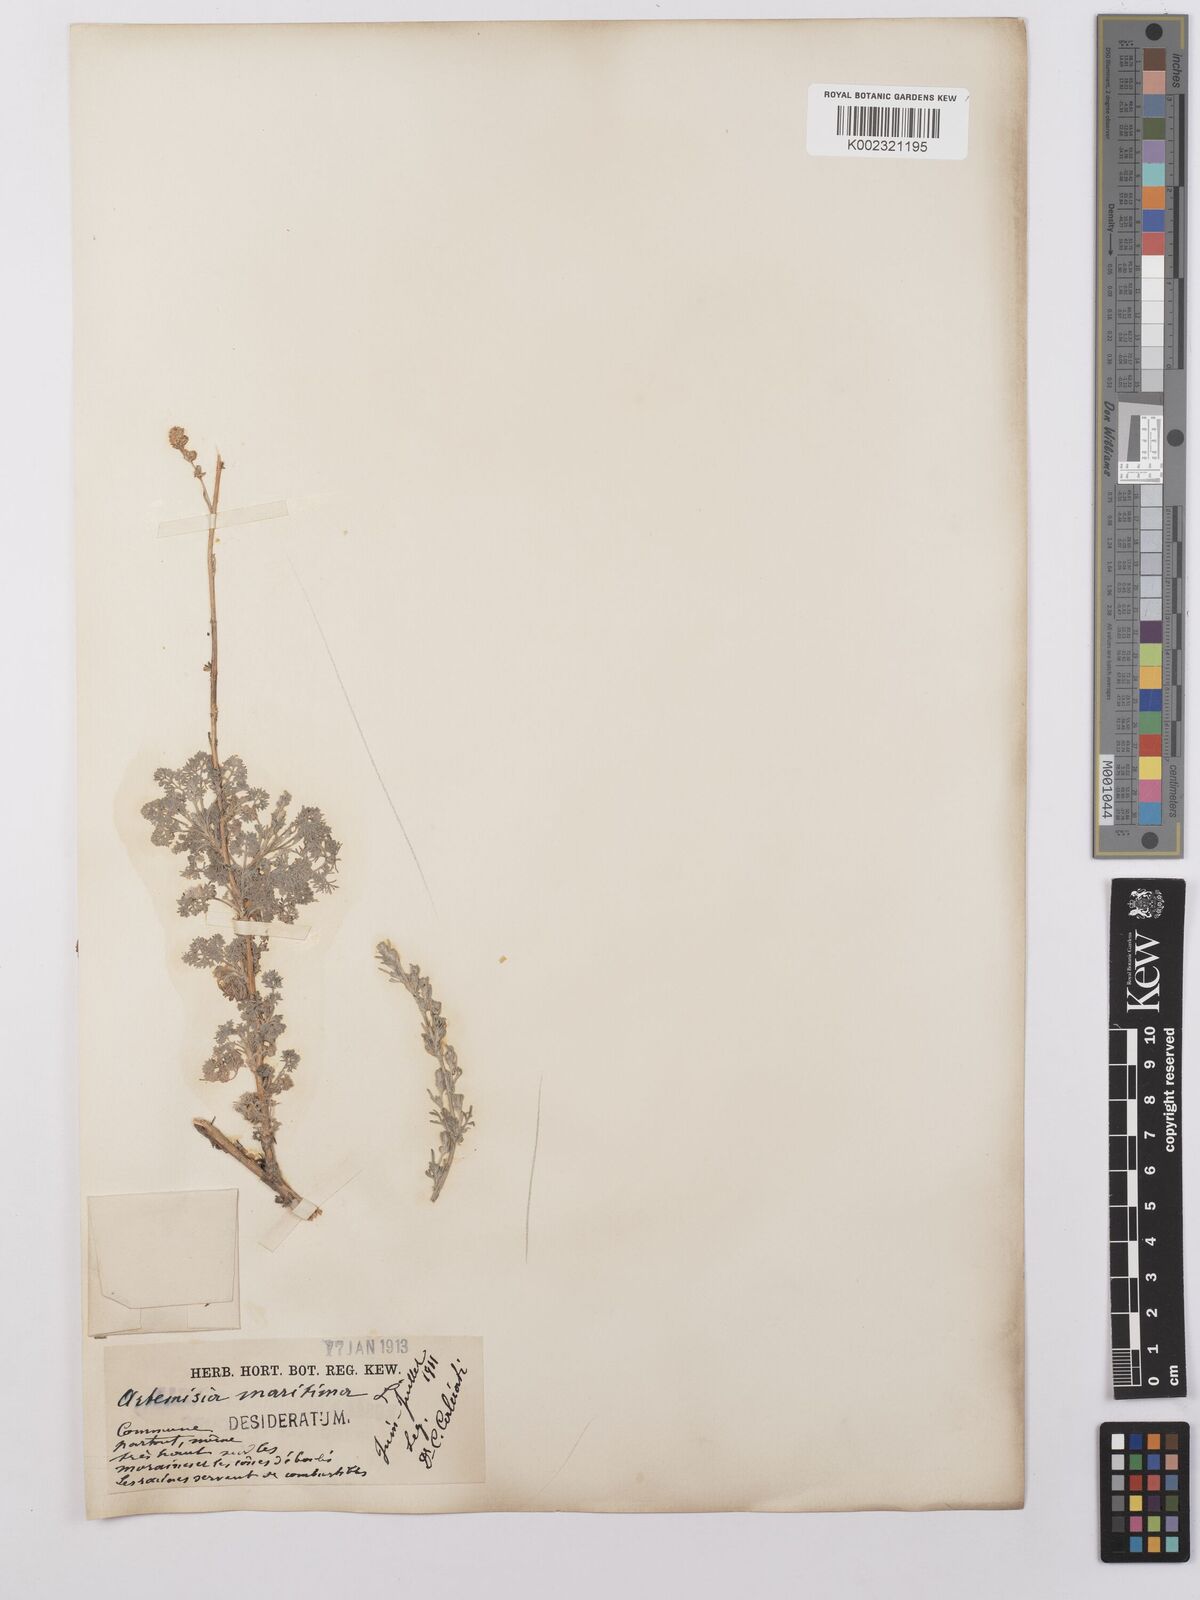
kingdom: Plantae
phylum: Tracheophyta
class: Magnoliopsida
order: Asterales
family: Asteraceae
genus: Artemisia
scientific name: Artemisia maritima
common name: Wormseed
